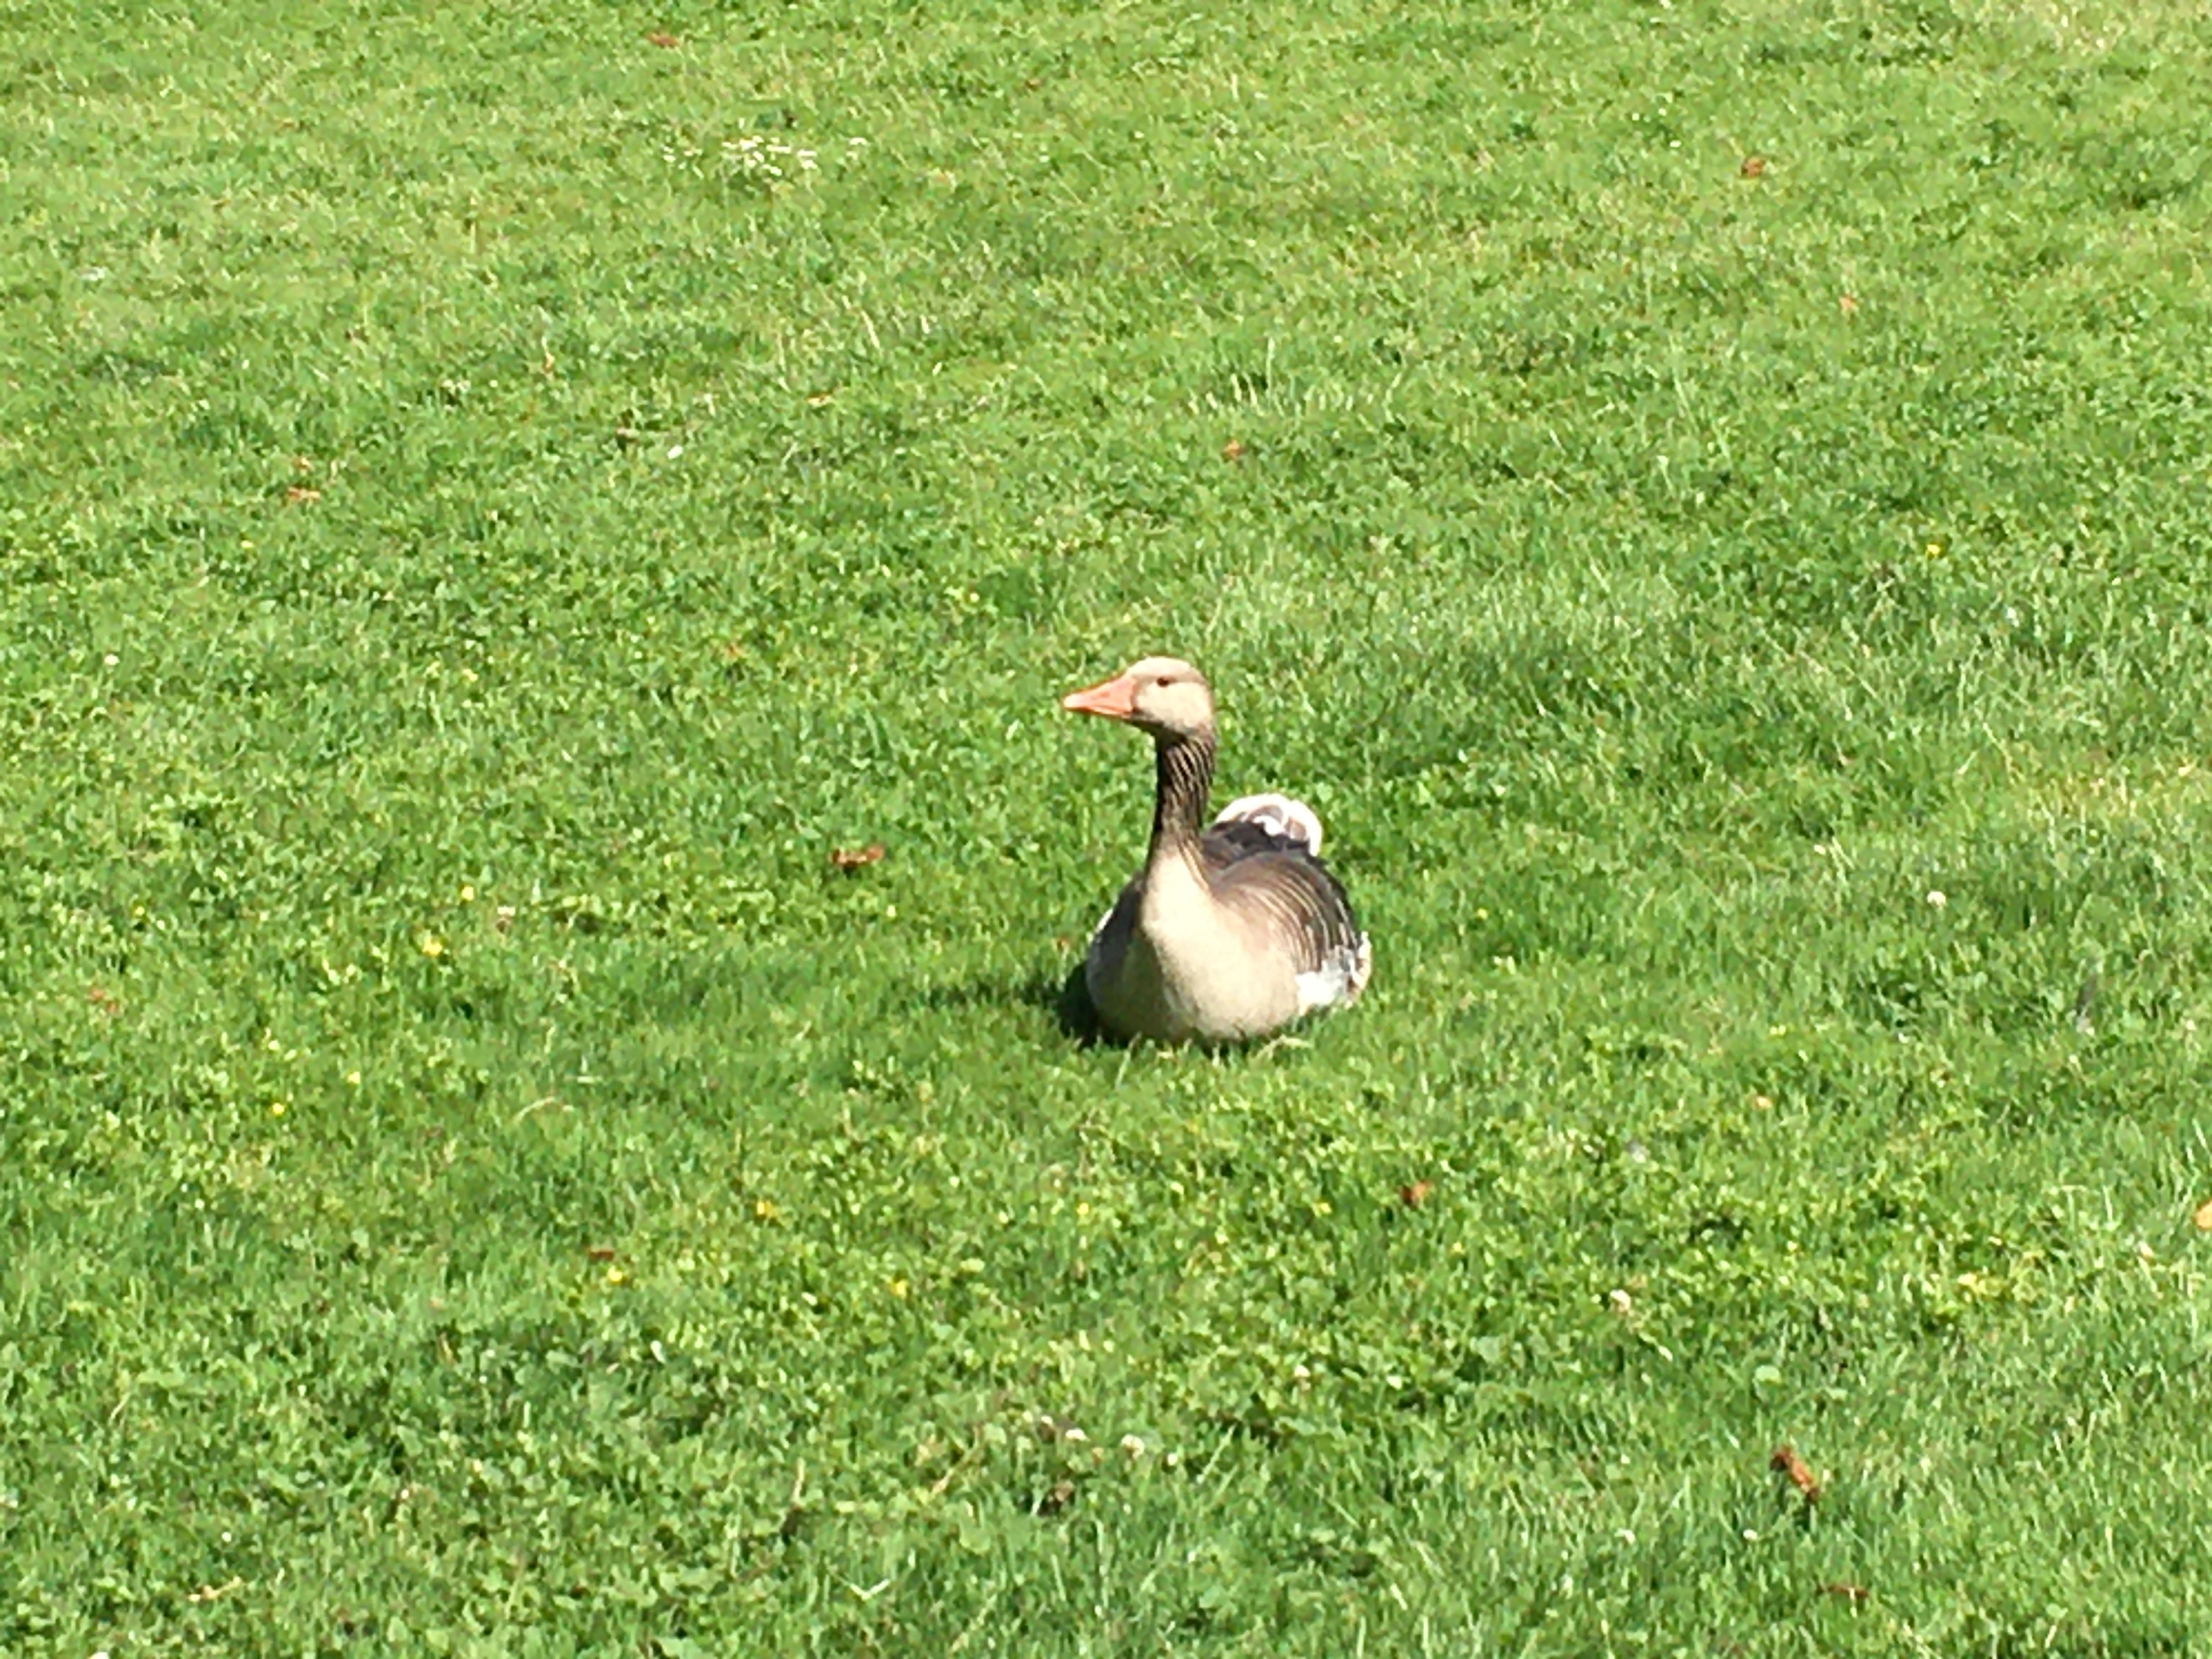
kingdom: Animalia
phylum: Chordata
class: Aves
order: Anseriformes
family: Anatidae
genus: Anser
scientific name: Anser anser
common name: Grågås
